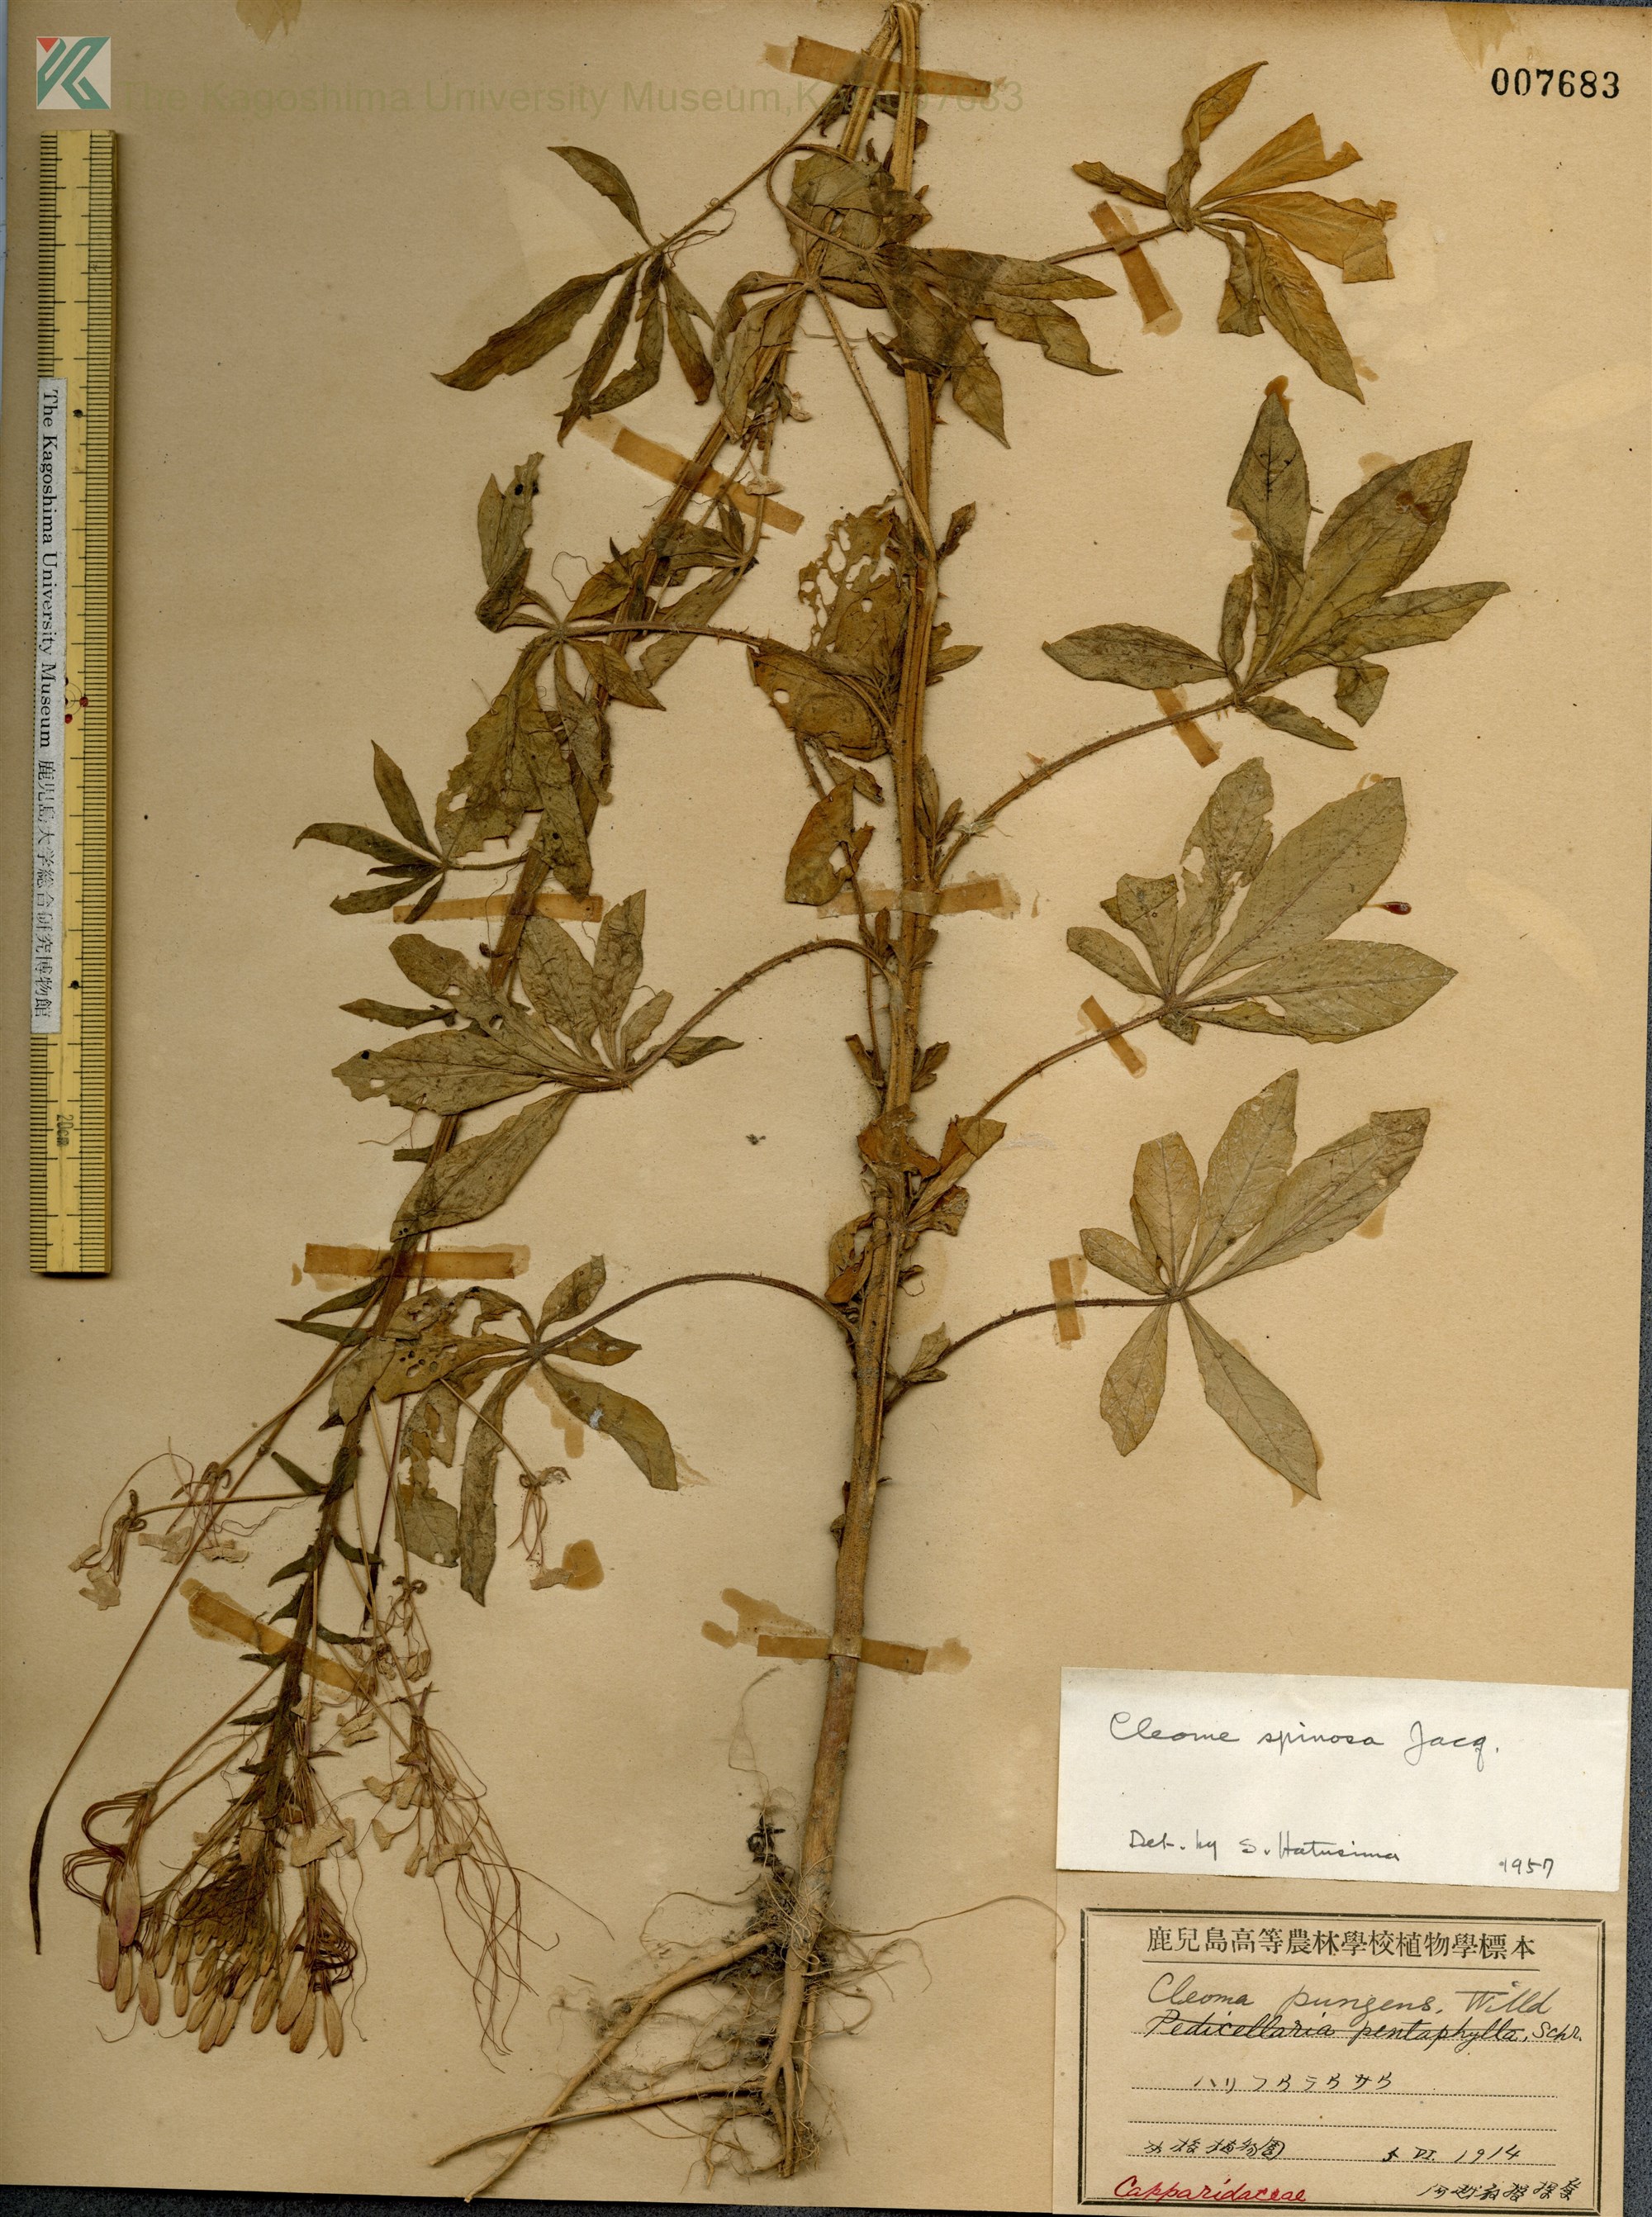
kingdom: Plantae
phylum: Tracheophyta
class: Magnoliopsida
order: Brassicales
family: Cleomaceae
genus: Tarenaya
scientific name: Tarenaya houtteana
